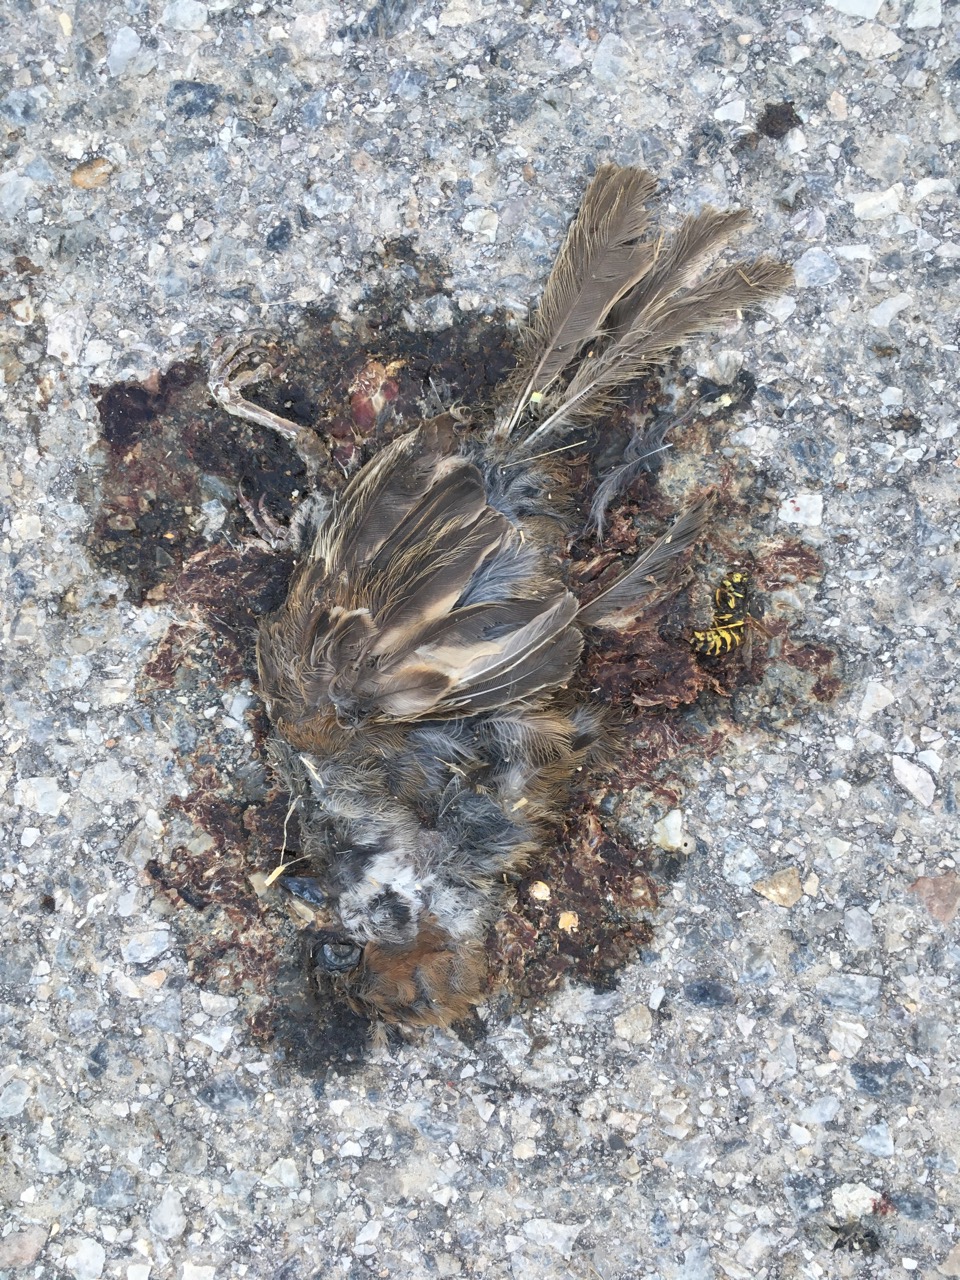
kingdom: Animalia
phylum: Chordata
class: Aves
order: Passeriformes
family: Passeridae
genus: Passer
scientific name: Passer montanus
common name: Eurasian tree sparrow
